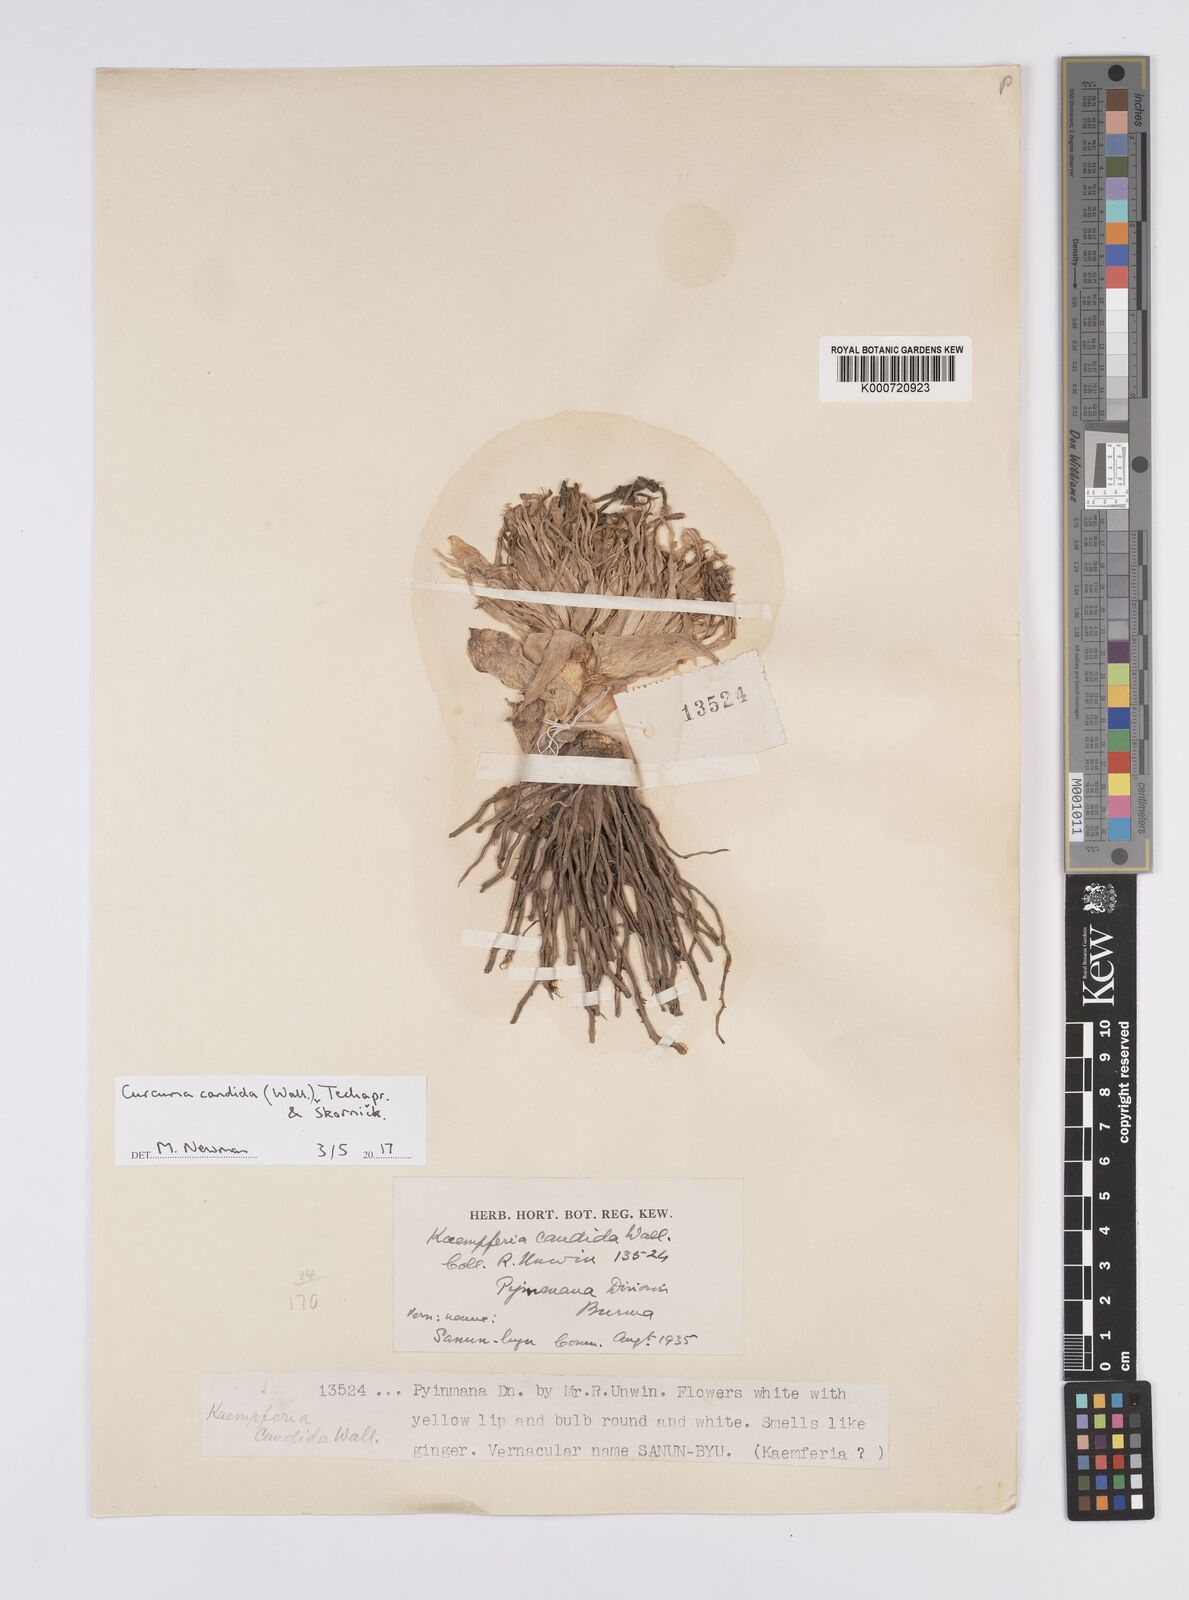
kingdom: Plantae
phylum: Tracheophyta
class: Liliopsida
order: Zingiberales
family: Zingiberaceae
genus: Curcuma
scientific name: Curcuma
